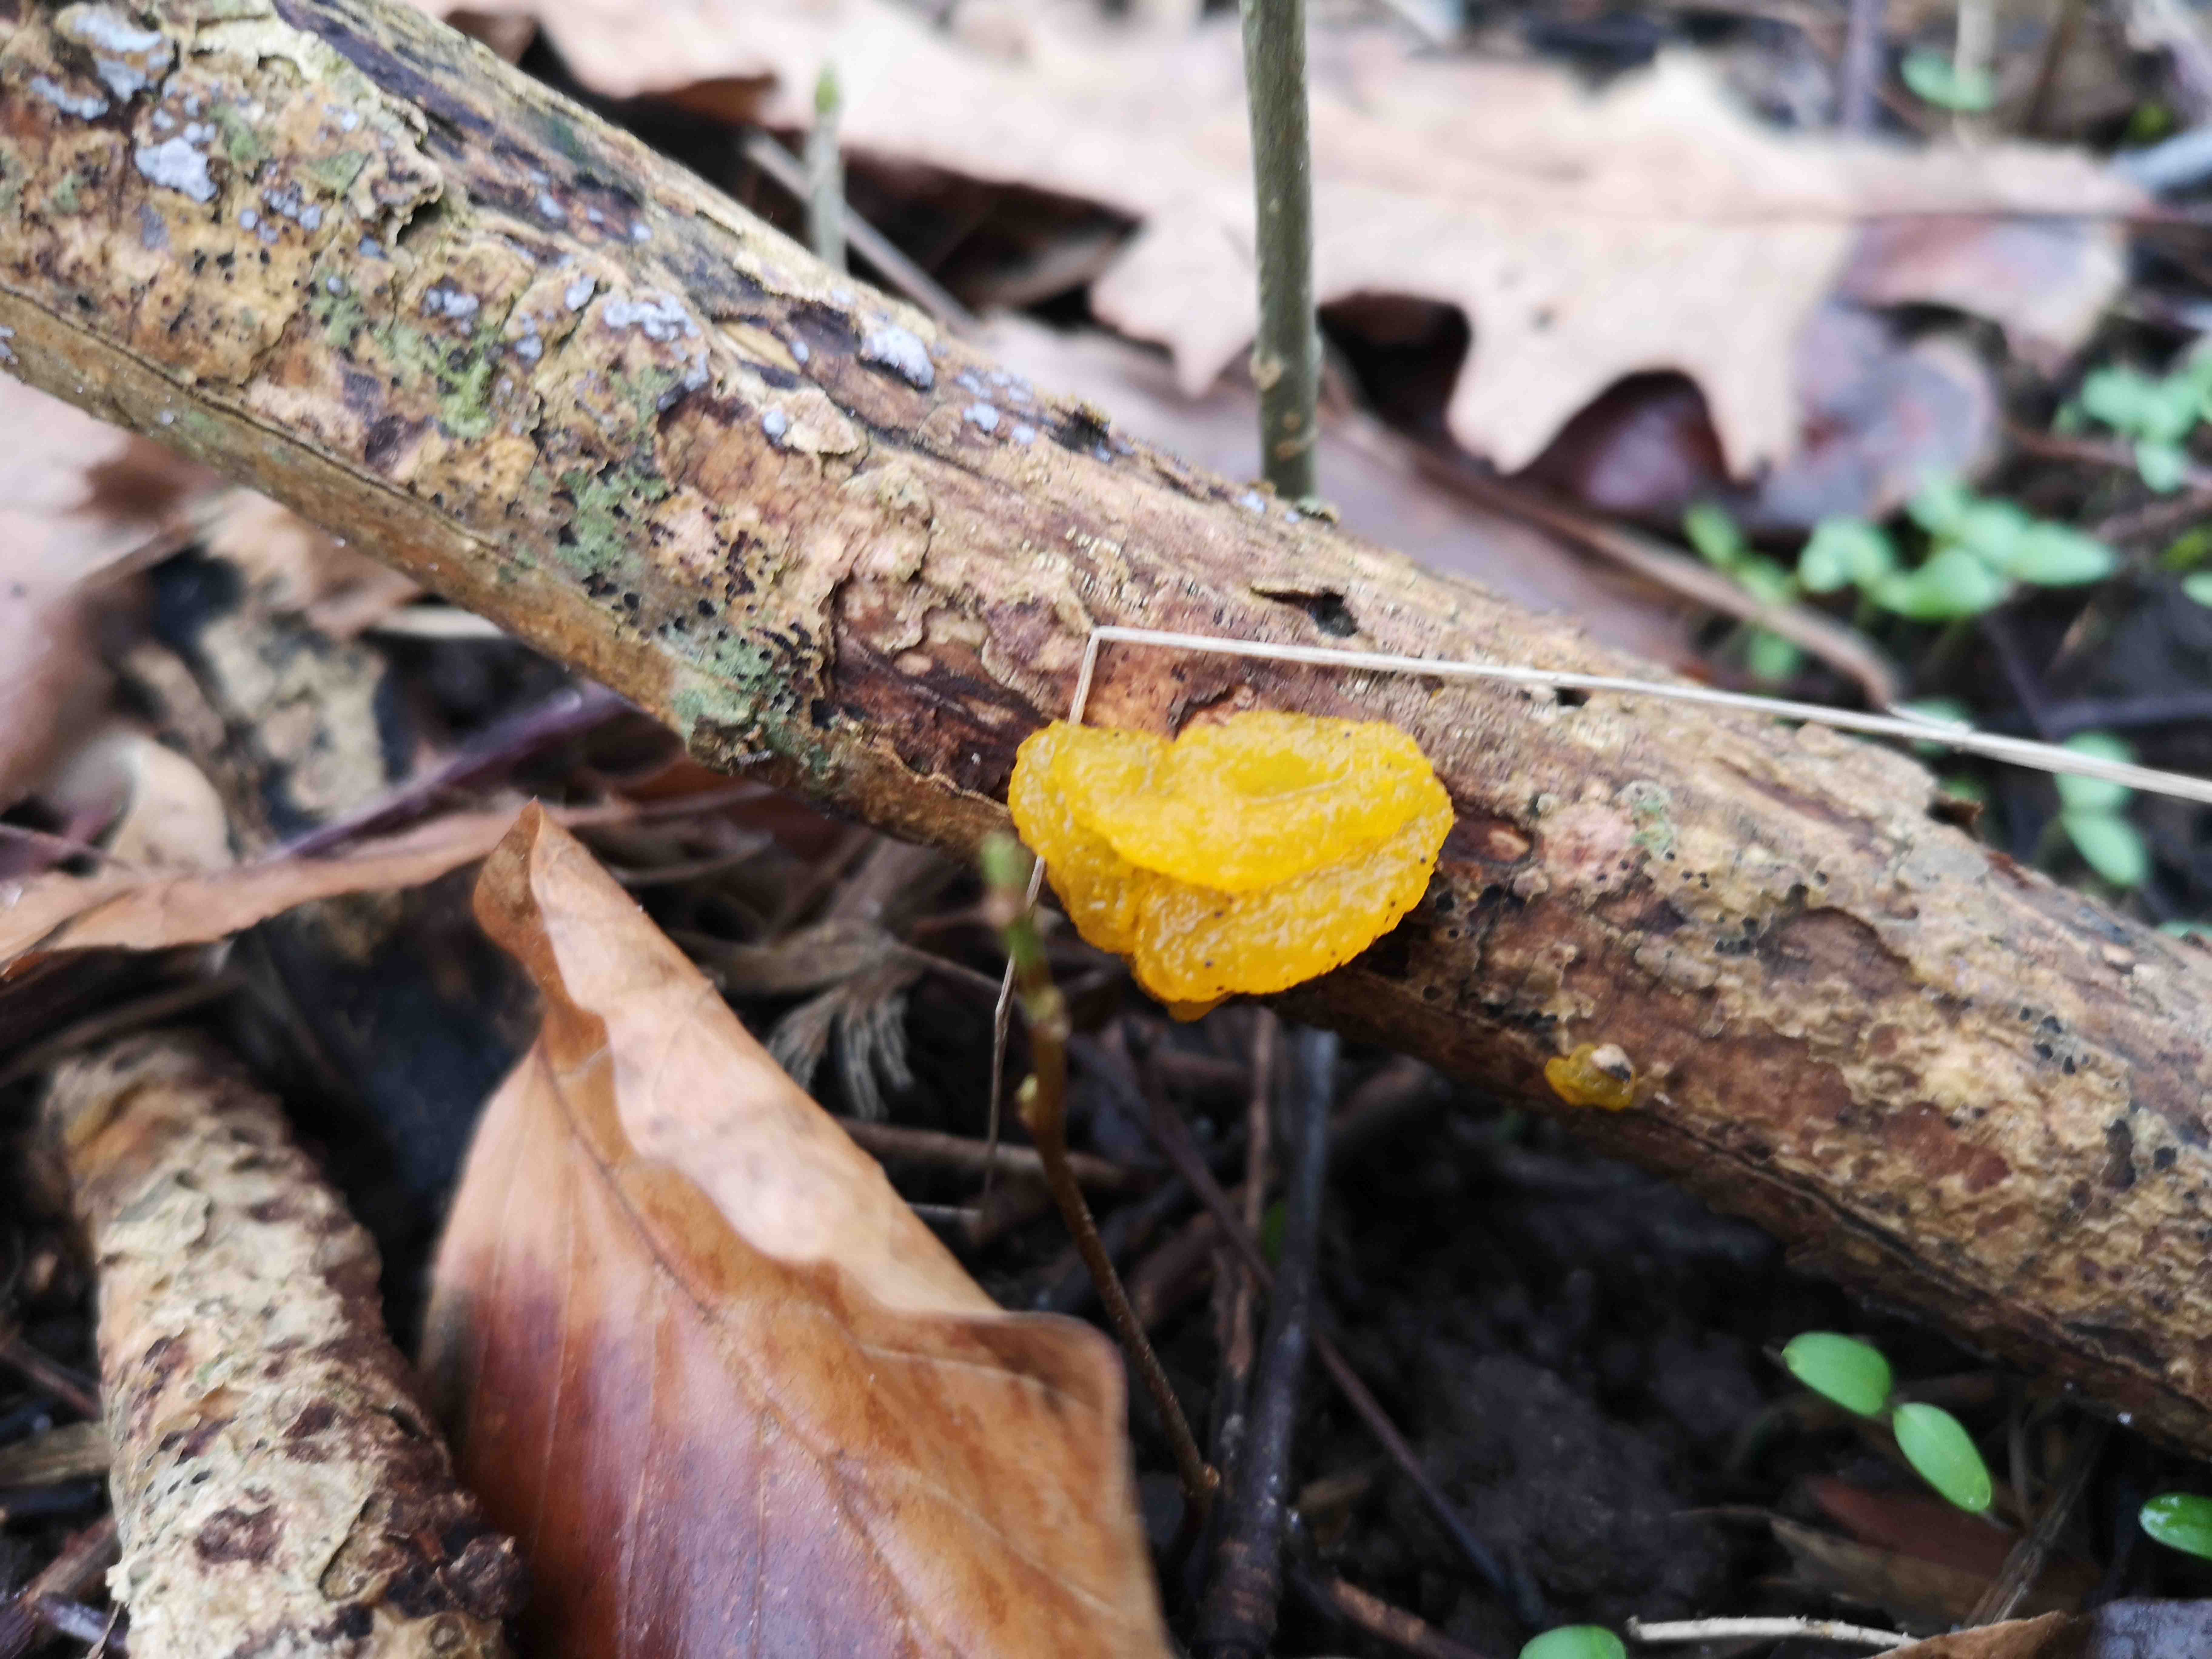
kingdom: Fungi
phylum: Basidiomycota
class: Tremellomycetes
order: Tremellales
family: Tremellaceae
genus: Tremella
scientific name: Tremella mesenterica
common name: gul bævresvamp
